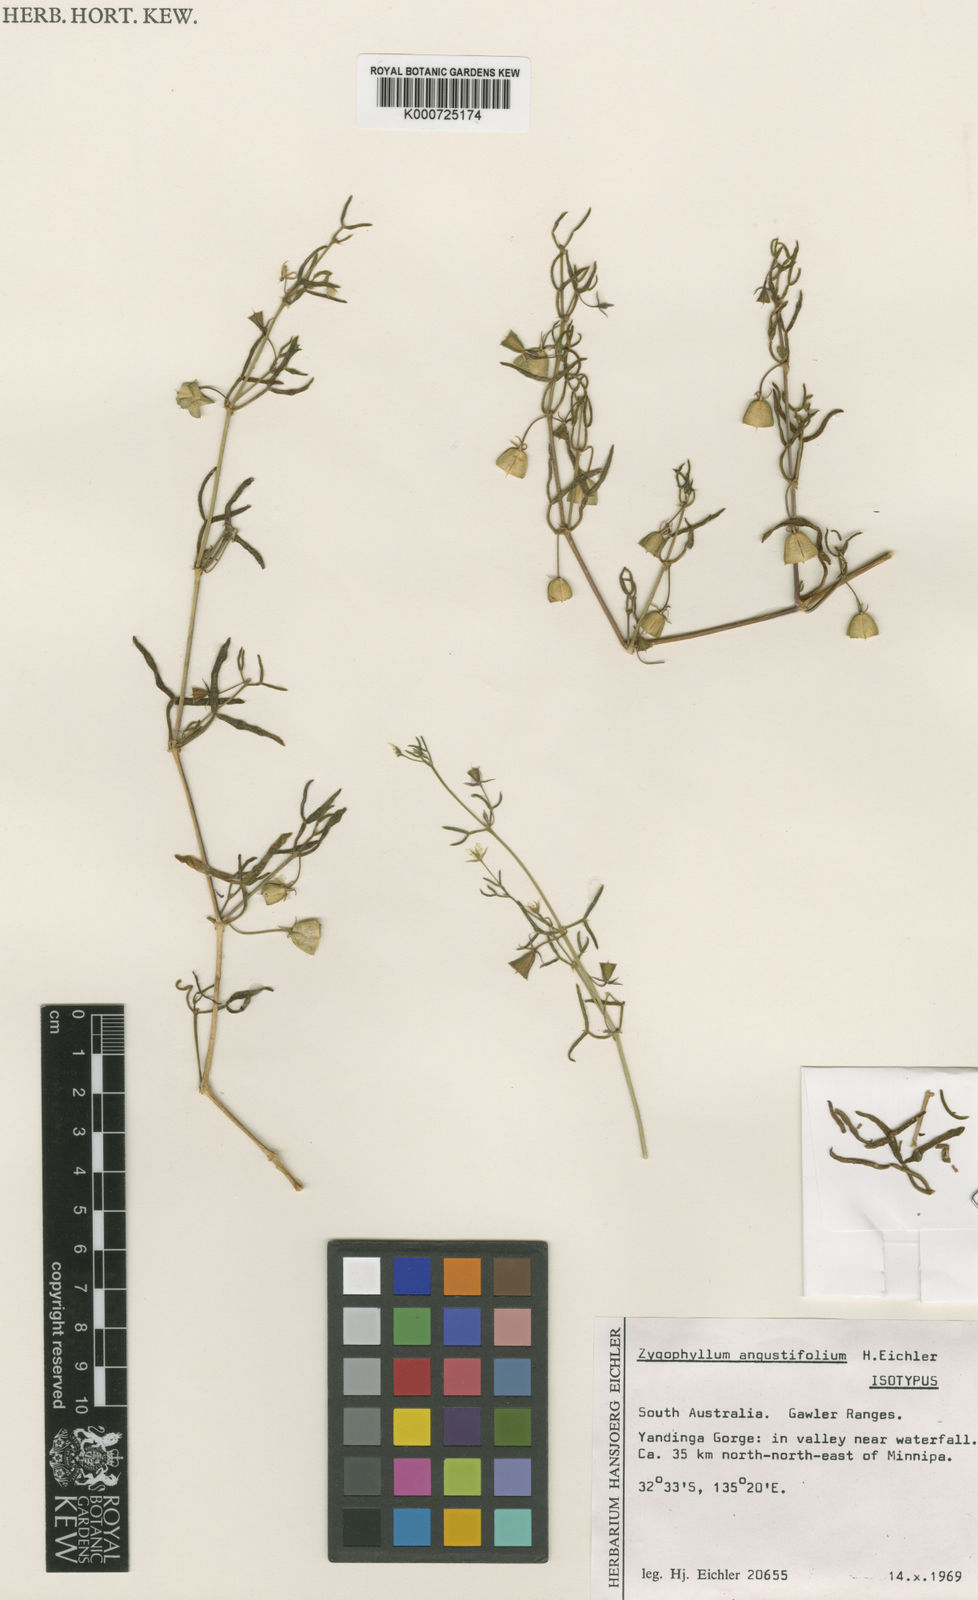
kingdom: Plantae
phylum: Tracheophyta
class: Magnoliopsida
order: Zygophyllales
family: Zygophyllaceae
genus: Roepera
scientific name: Roepera angustifolia
